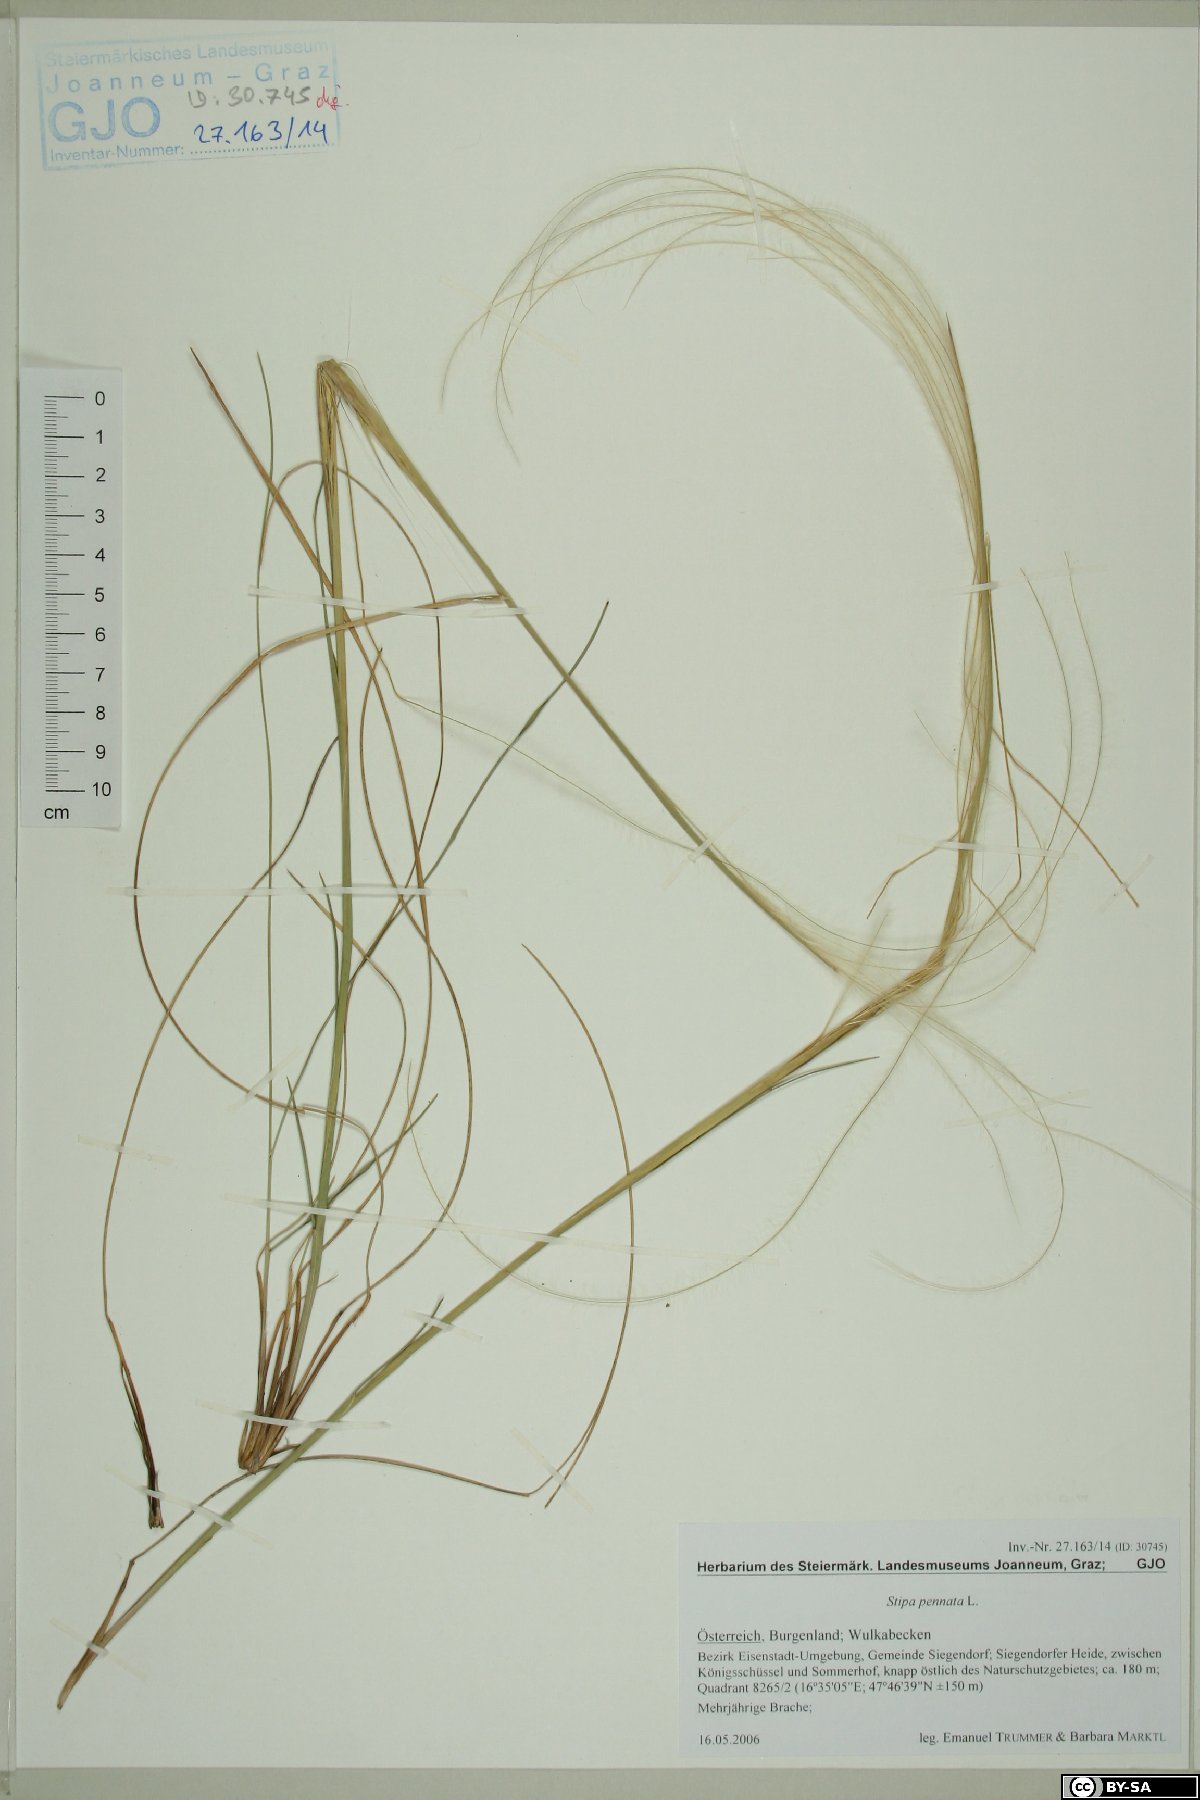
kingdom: Plantae
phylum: Tracheophyta
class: Liliopsida
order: Poales
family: Poaceae
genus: Stipa
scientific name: Stipa pennata
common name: European feather grass
